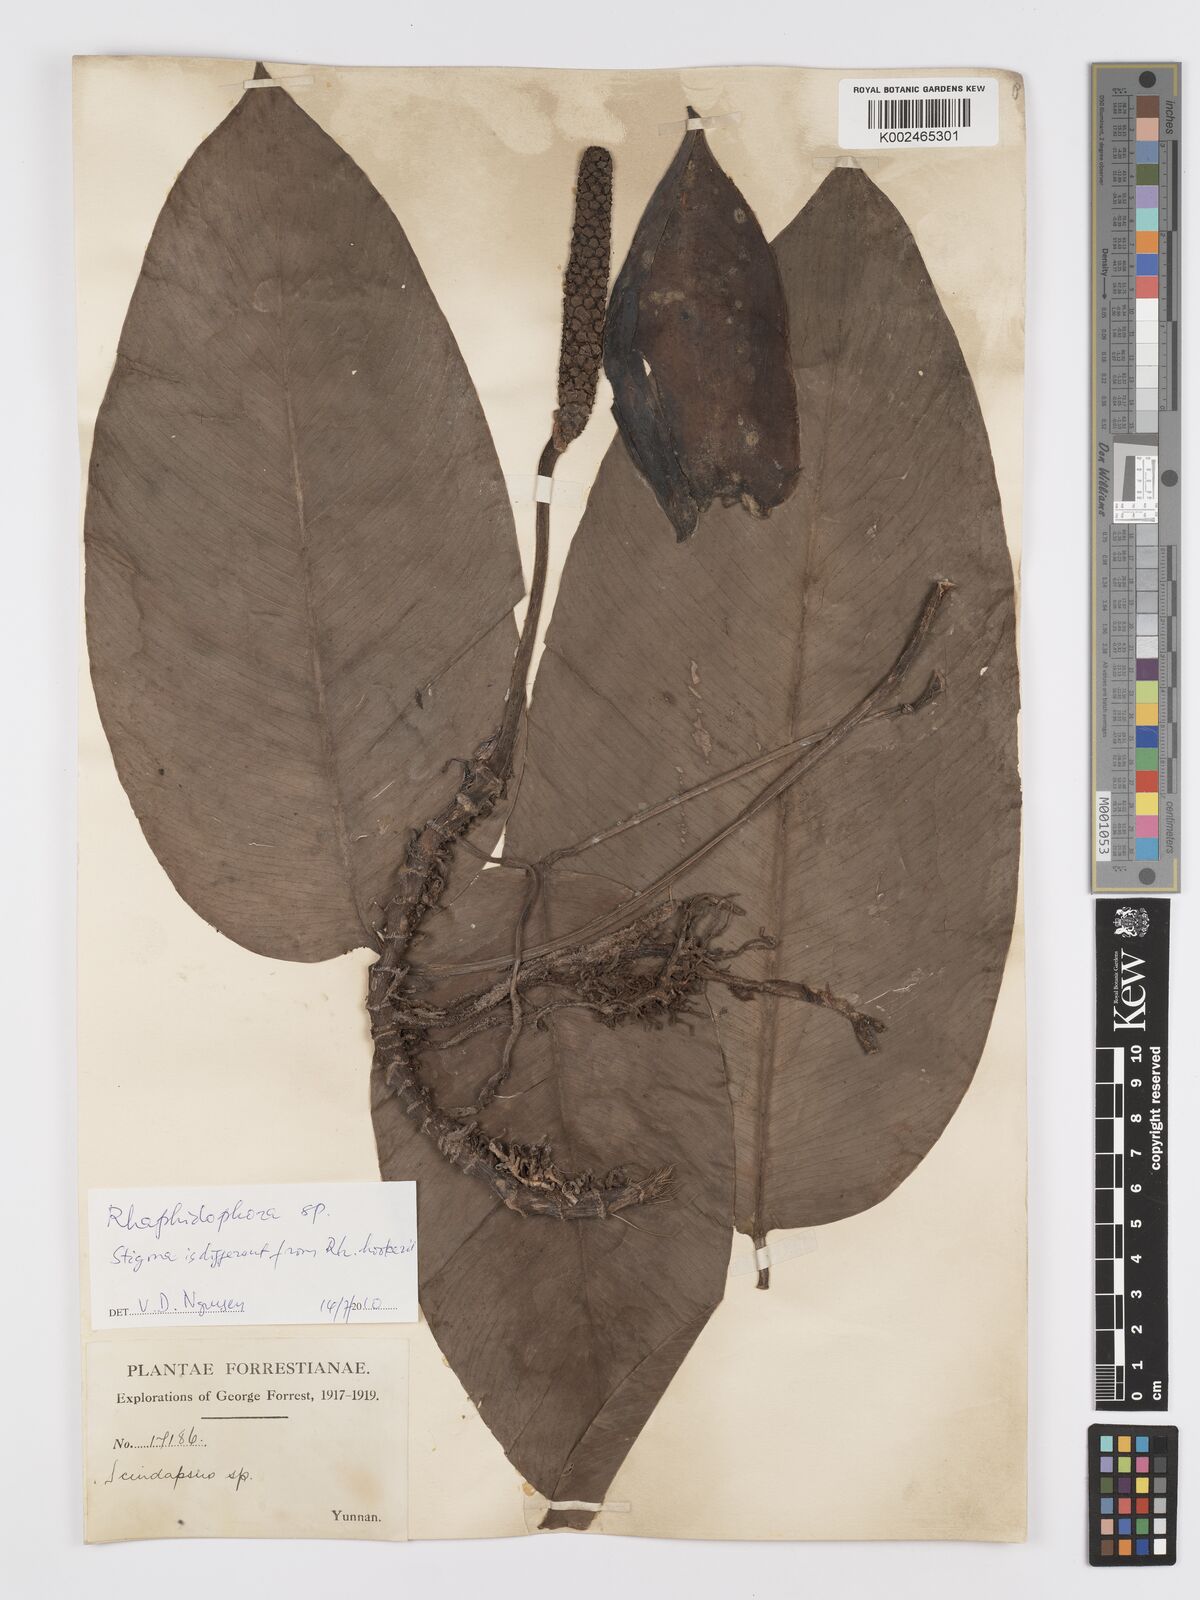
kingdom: Plantae
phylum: Tracheophyta
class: Liliopsida
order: Alismatales
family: Araceae
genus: Rhaphidophora
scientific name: Rhaphidophora hookeri
